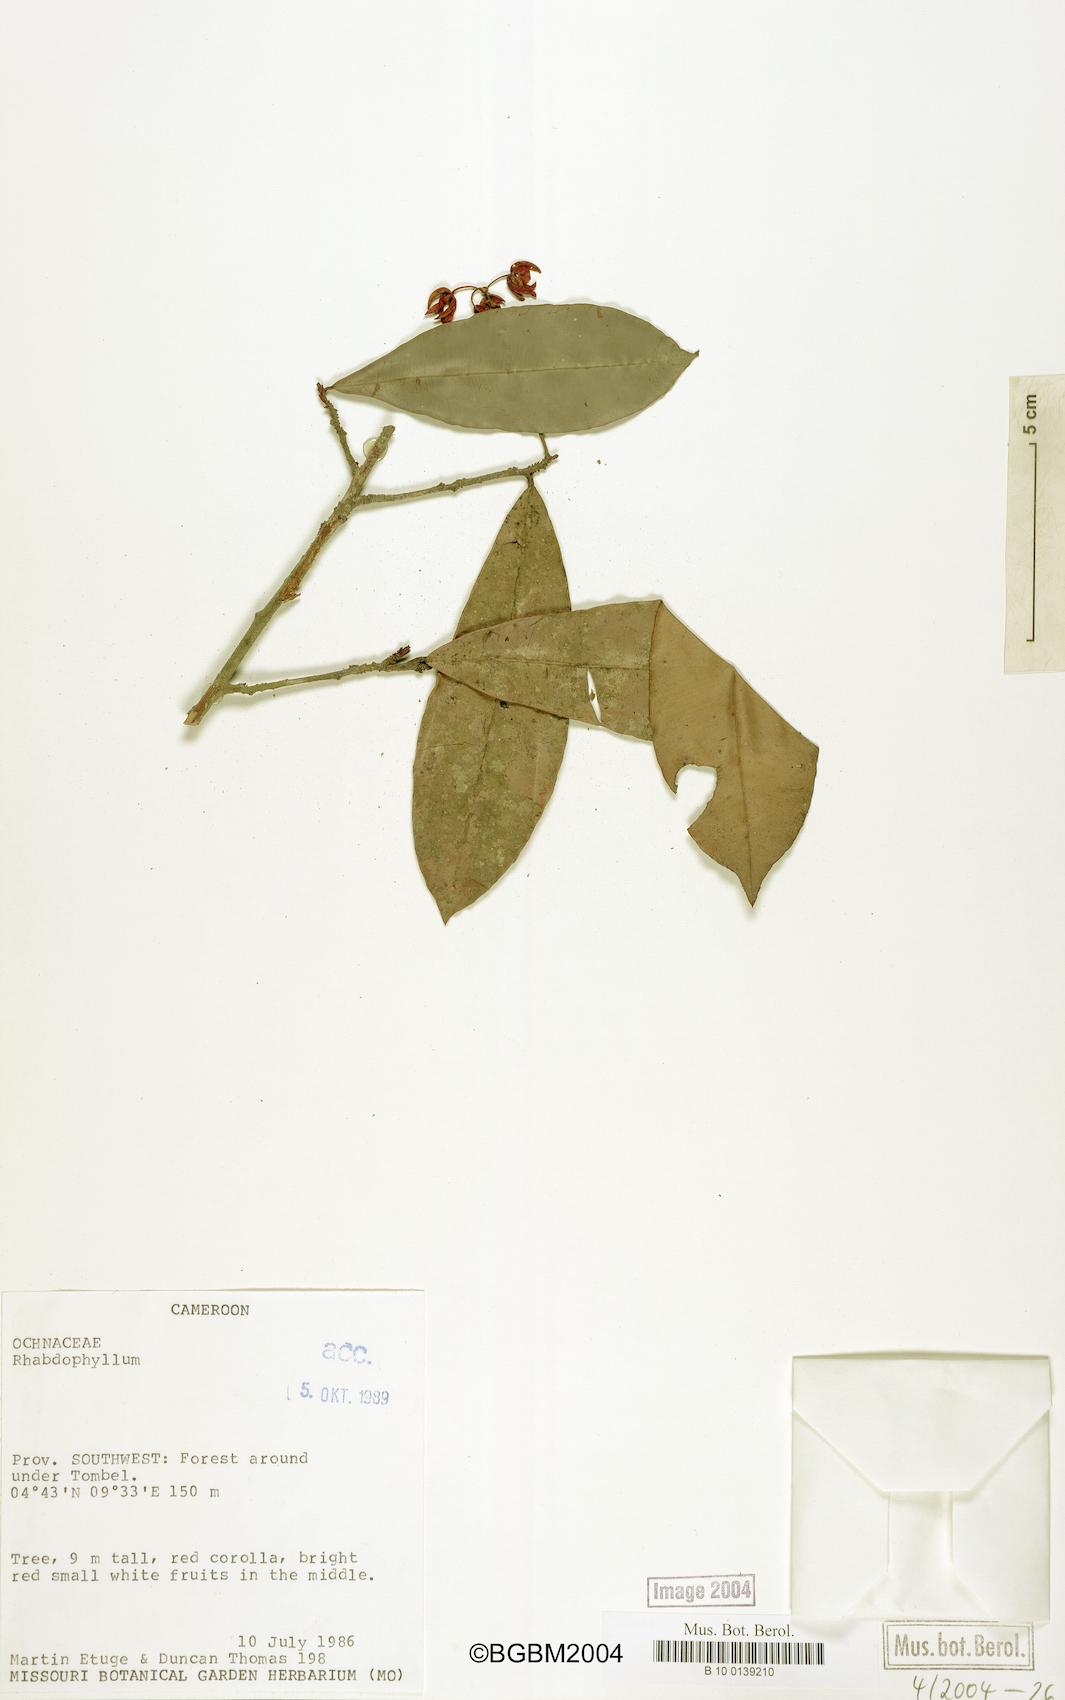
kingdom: Plantae
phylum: Tracheophyta
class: Magnoliopsida
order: Malpighiales
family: Ochnaceae
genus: Rhabdophyllum
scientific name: Rhabdophyllum
